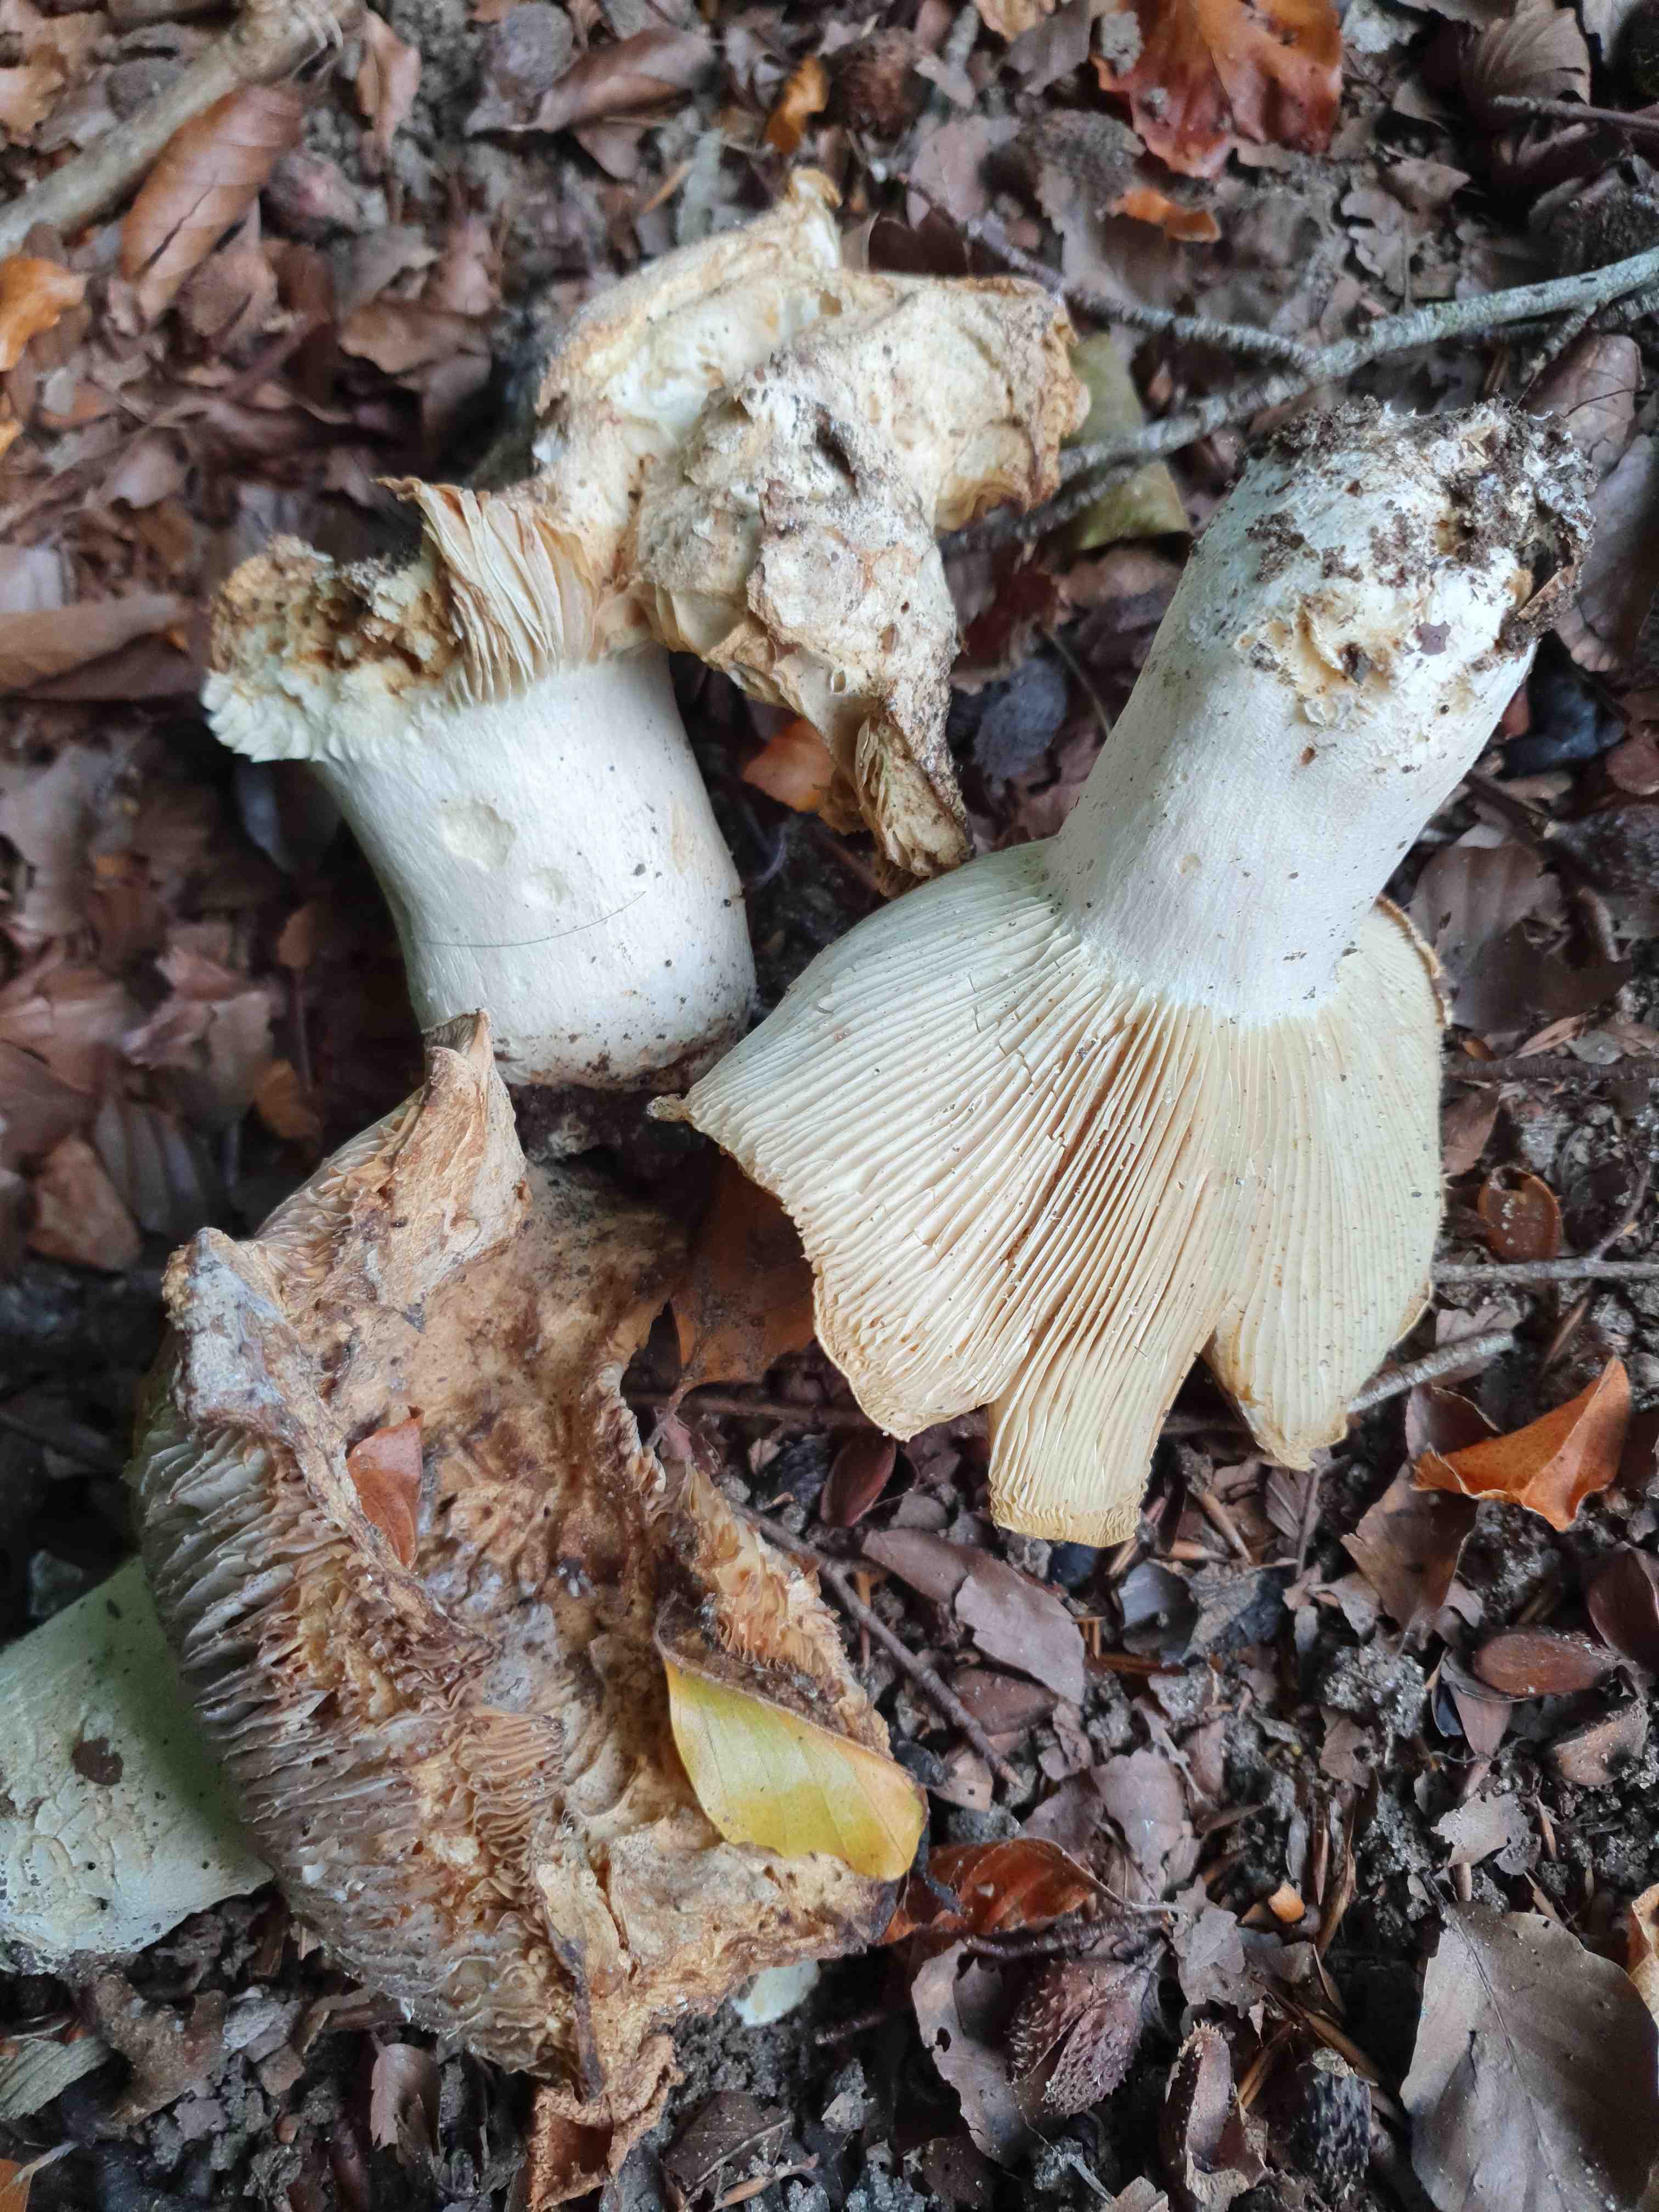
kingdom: Fungi
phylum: Basidiomycota
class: Agaricomycetes
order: Russulales
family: Russulaceae
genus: Russula
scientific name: Russula chloroides
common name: grønhalset tragt-skørhat
